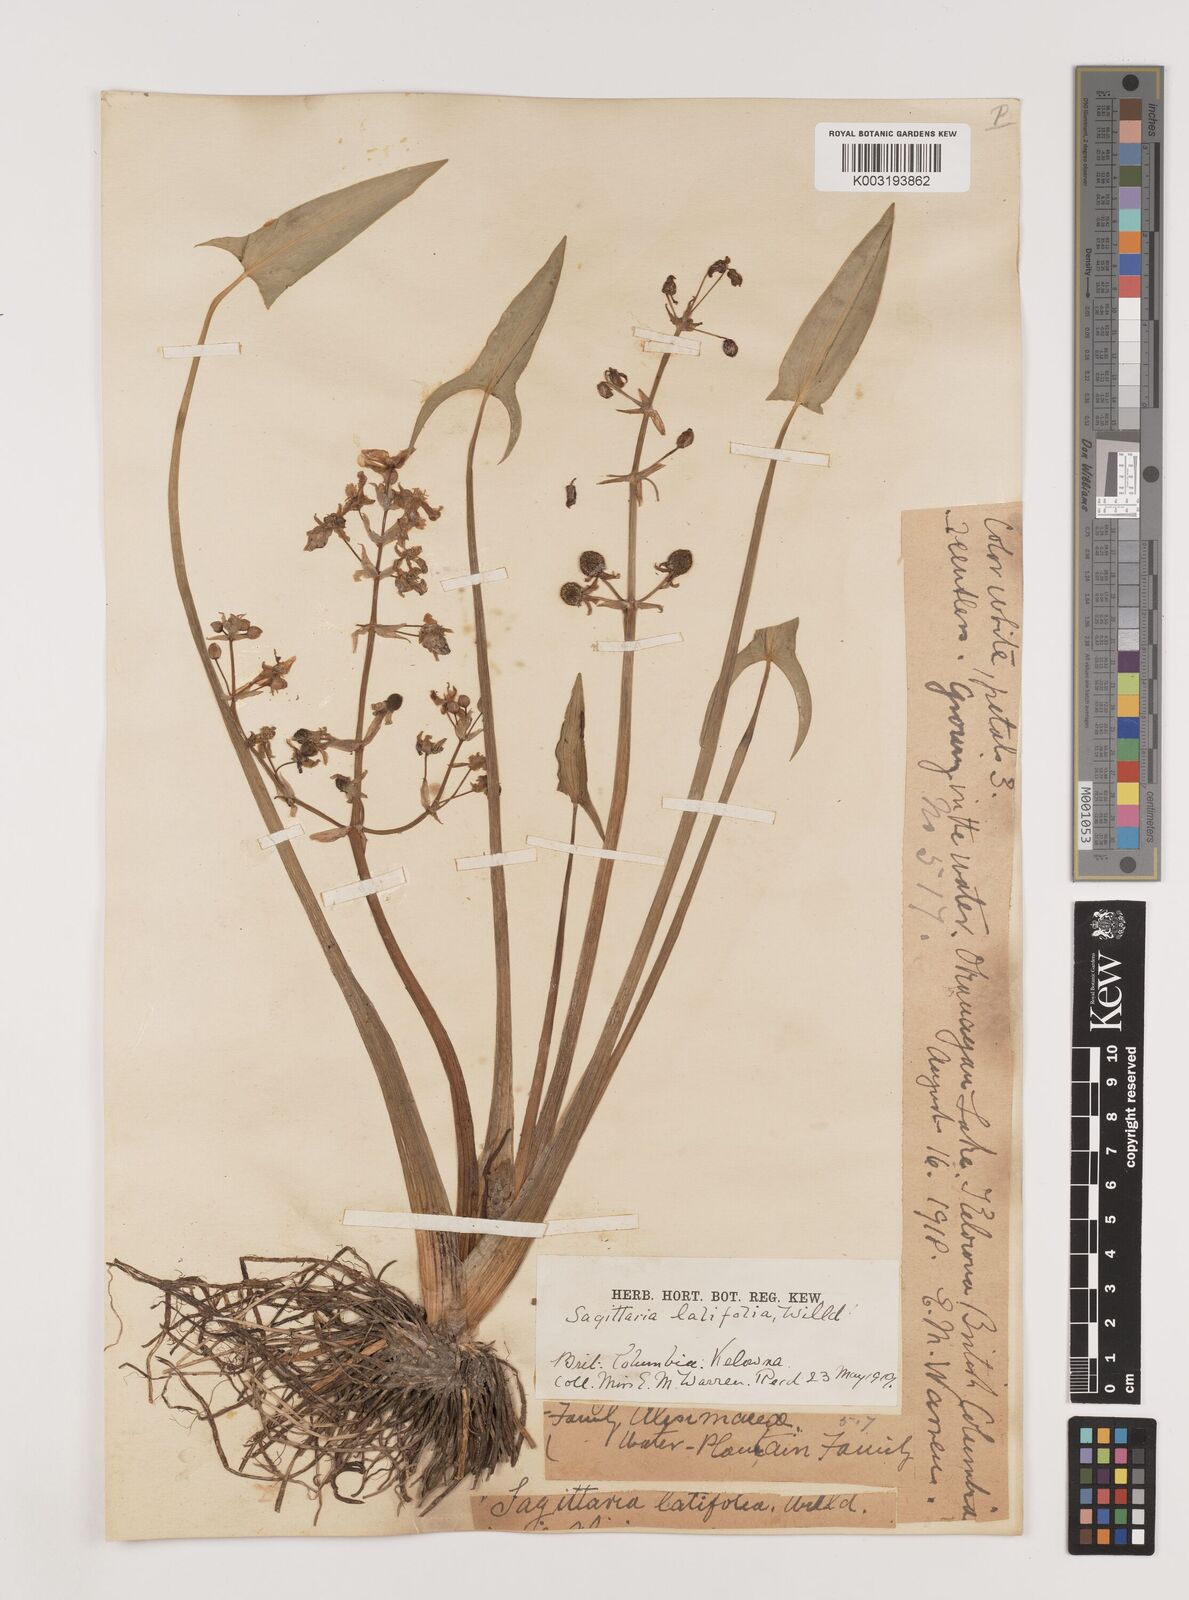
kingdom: Plantae
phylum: Tracheophyta
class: Liliopsida
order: Alismatales
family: Alismataceae
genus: Sagittaria
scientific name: Sagittaria latifolia
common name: Duck-potato
